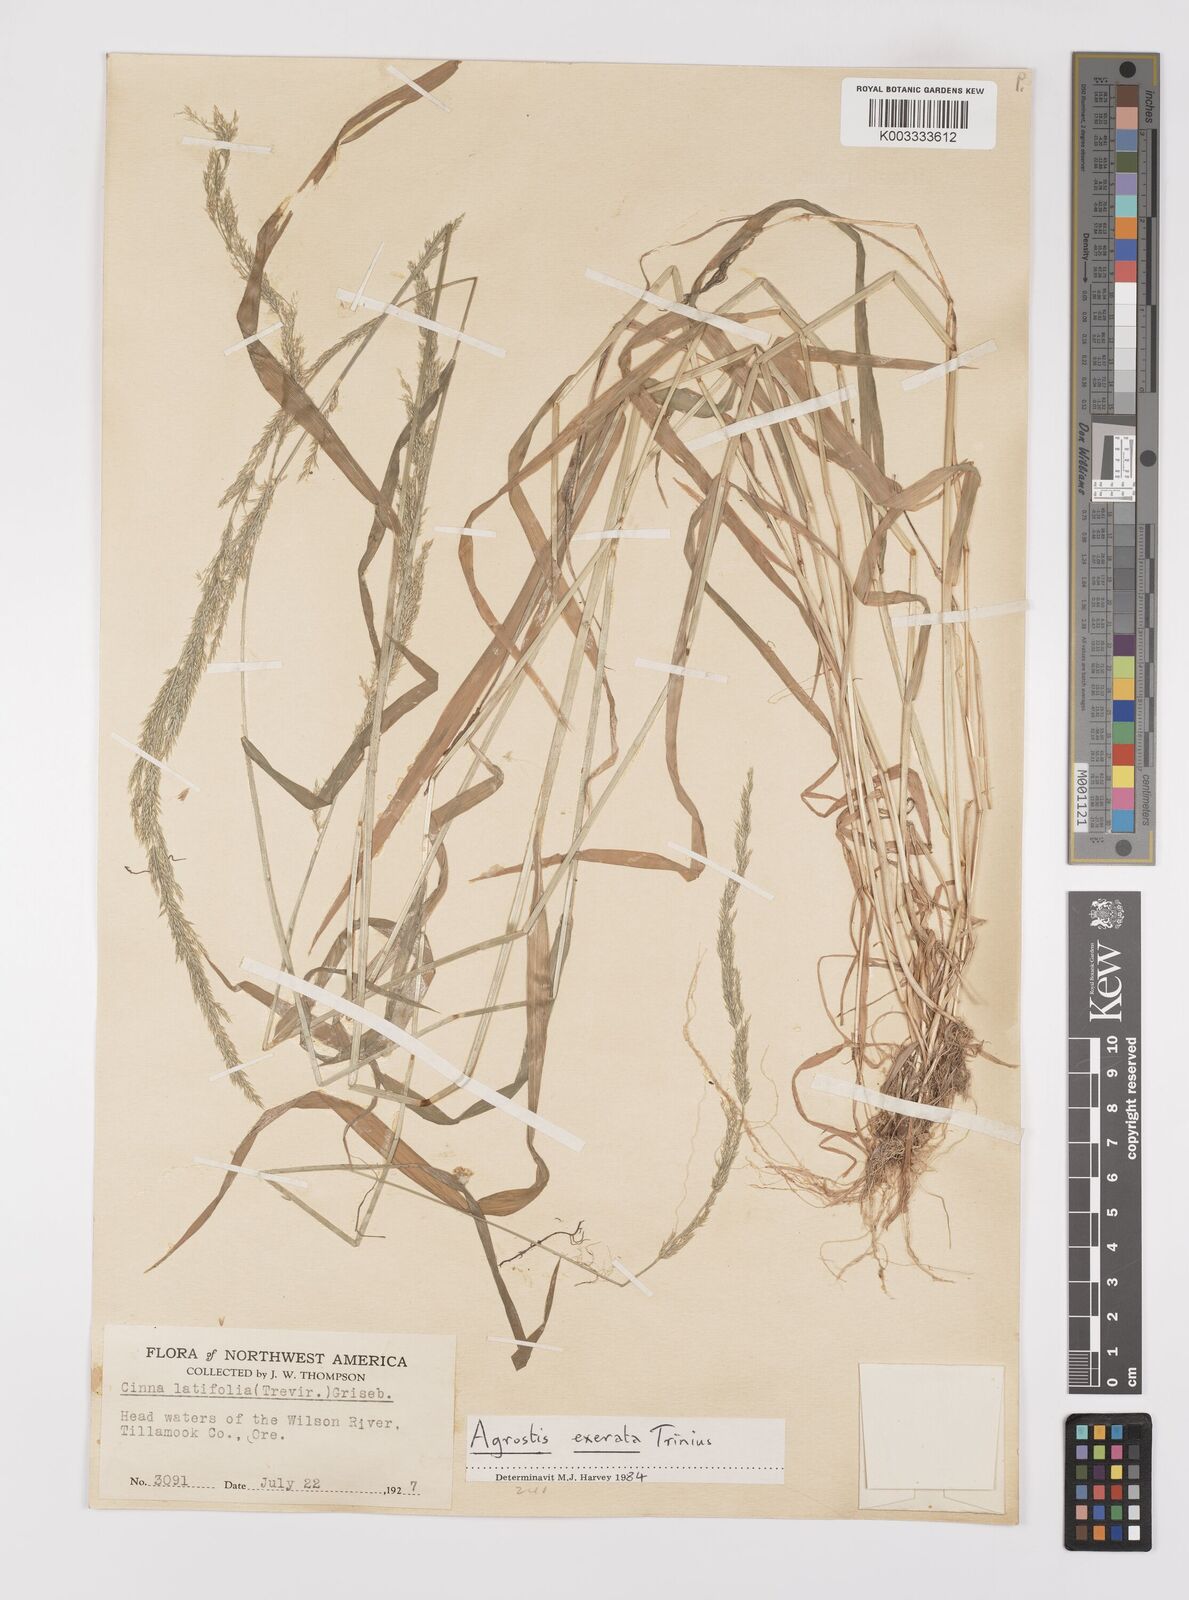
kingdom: Plantae
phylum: Tracheophyta
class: Liliopsida
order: Poales
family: Poaceae
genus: Cinna
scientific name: Cinna latifolia
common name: Drooping woodreed
